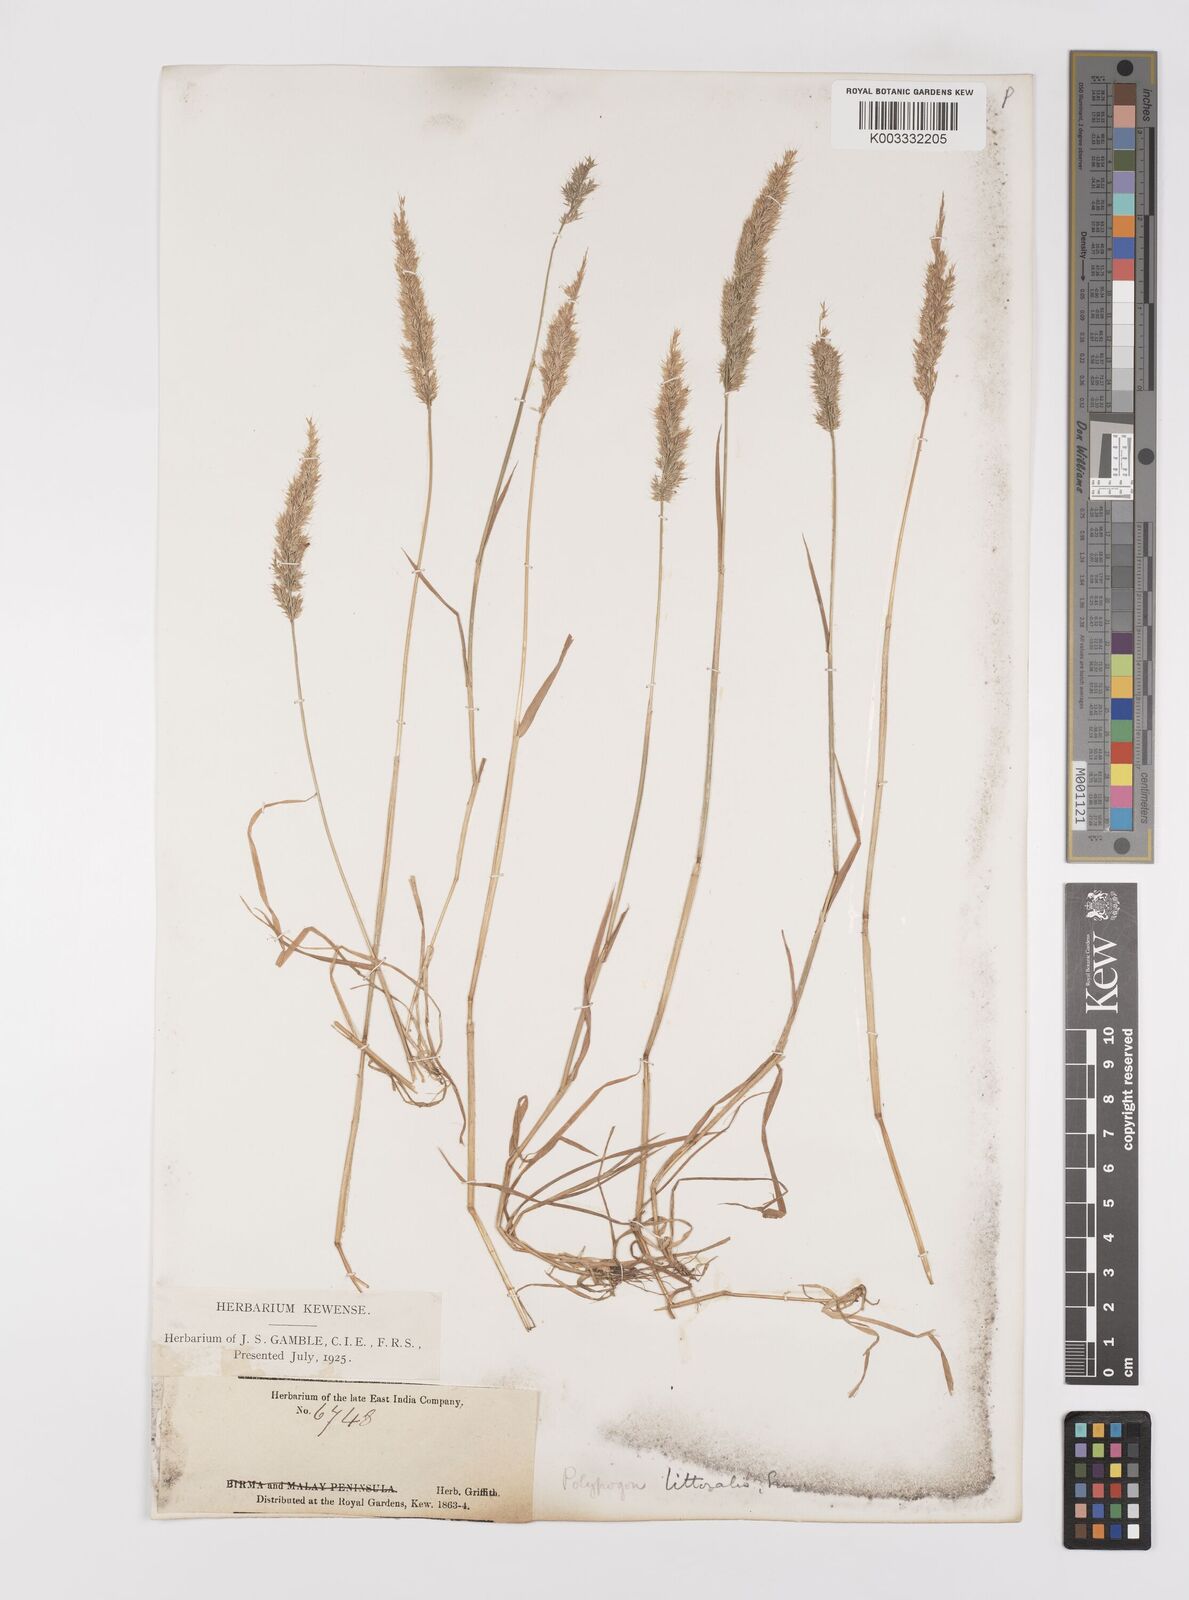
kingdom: Plantae
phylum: Tracheophyta
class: Liliopsida
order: Poales
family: Poaceae
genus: Polypogon
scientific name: Polypogon fugax
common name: Asia minor bluegrass
